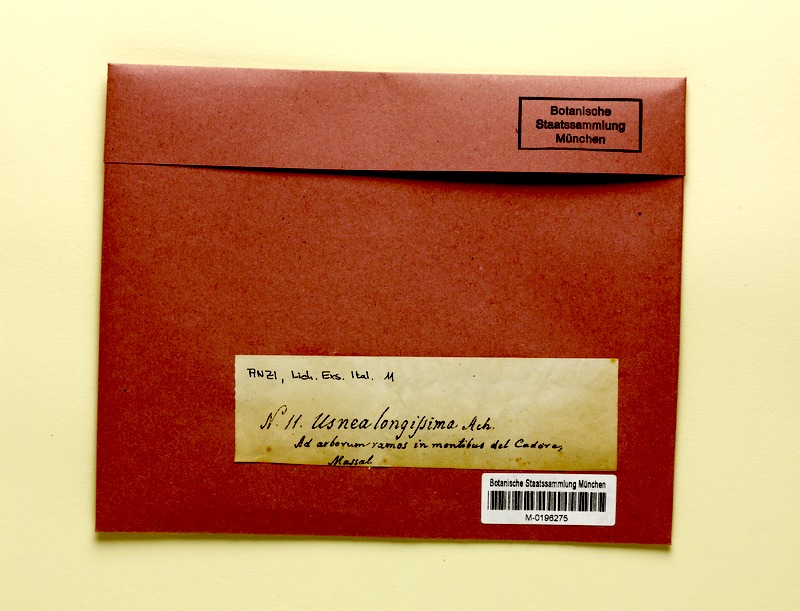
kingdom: Fungi
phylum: Ascomycota
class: Lecanoromycetes
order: Lecanorales
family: Parmeliaceae
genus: Dolichousnea
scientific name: Dolichousnea longissima
